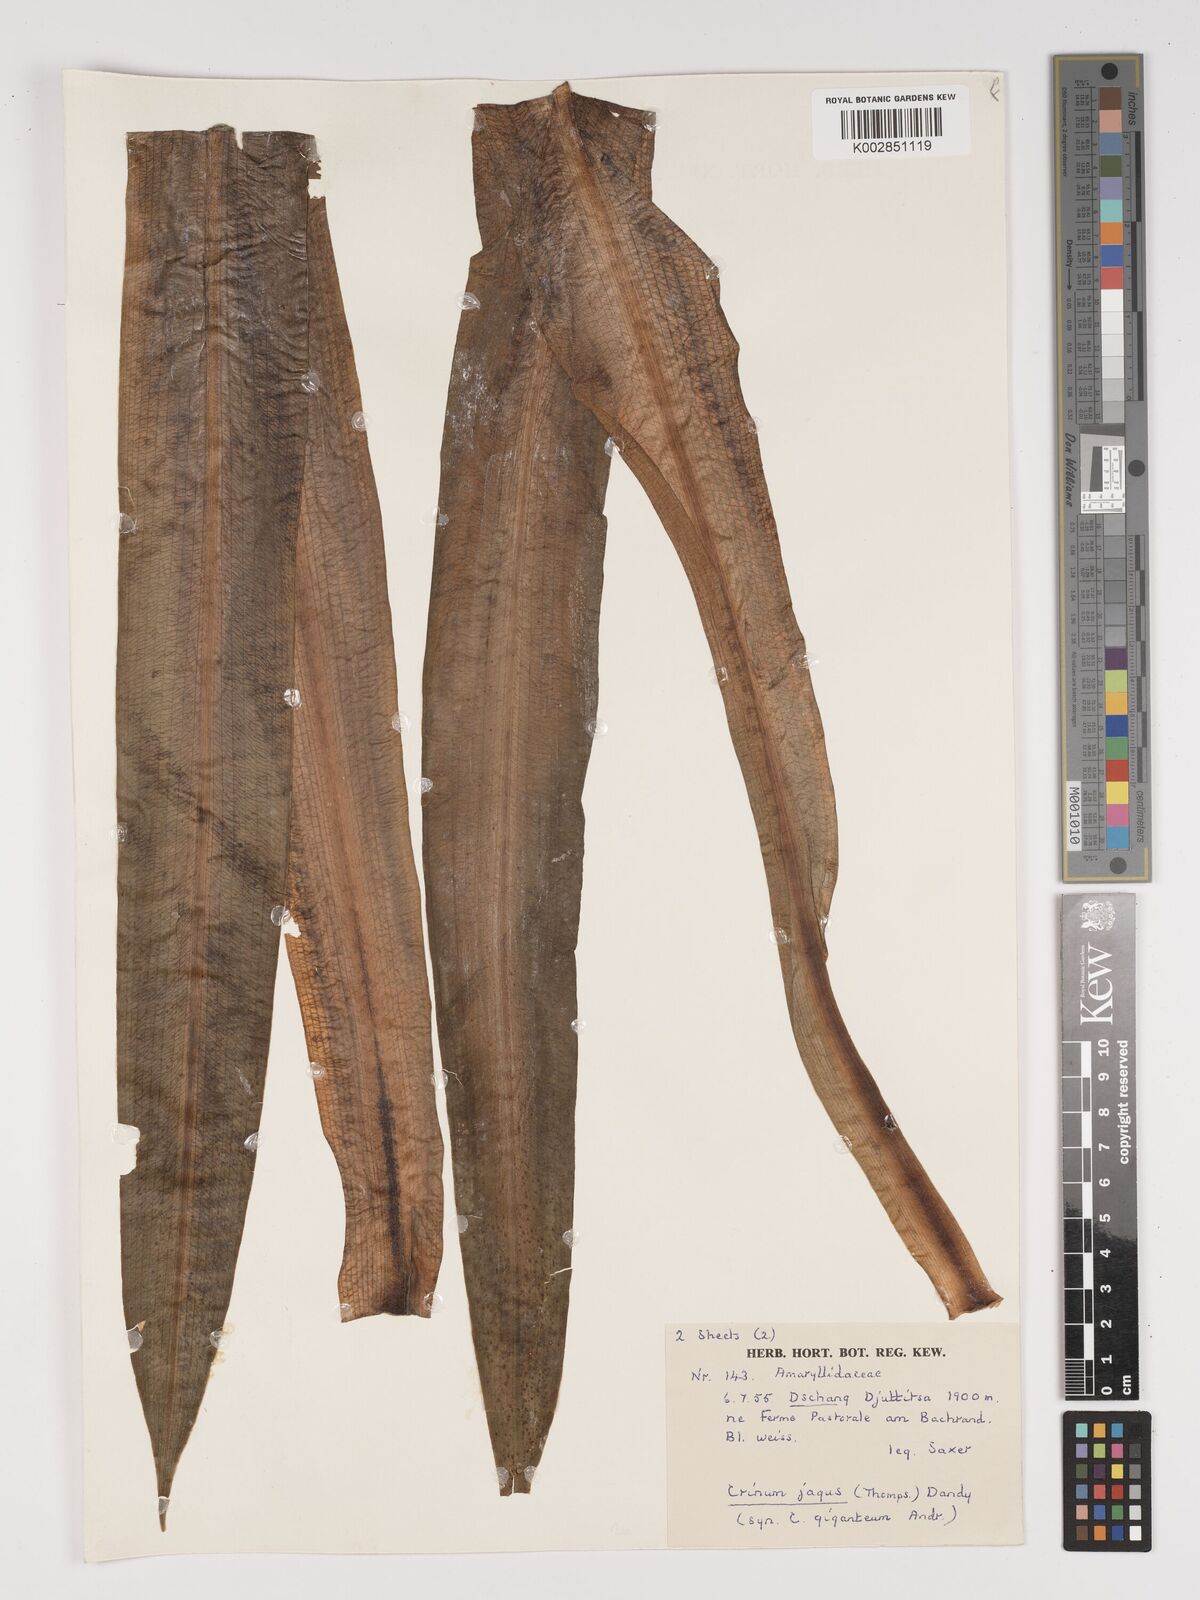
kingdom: Plantae
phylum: Tracheophyta
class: Liliopsida
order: Asparagales
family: Amaryllidaceae
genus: Crinum
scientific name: Crinum jagus
